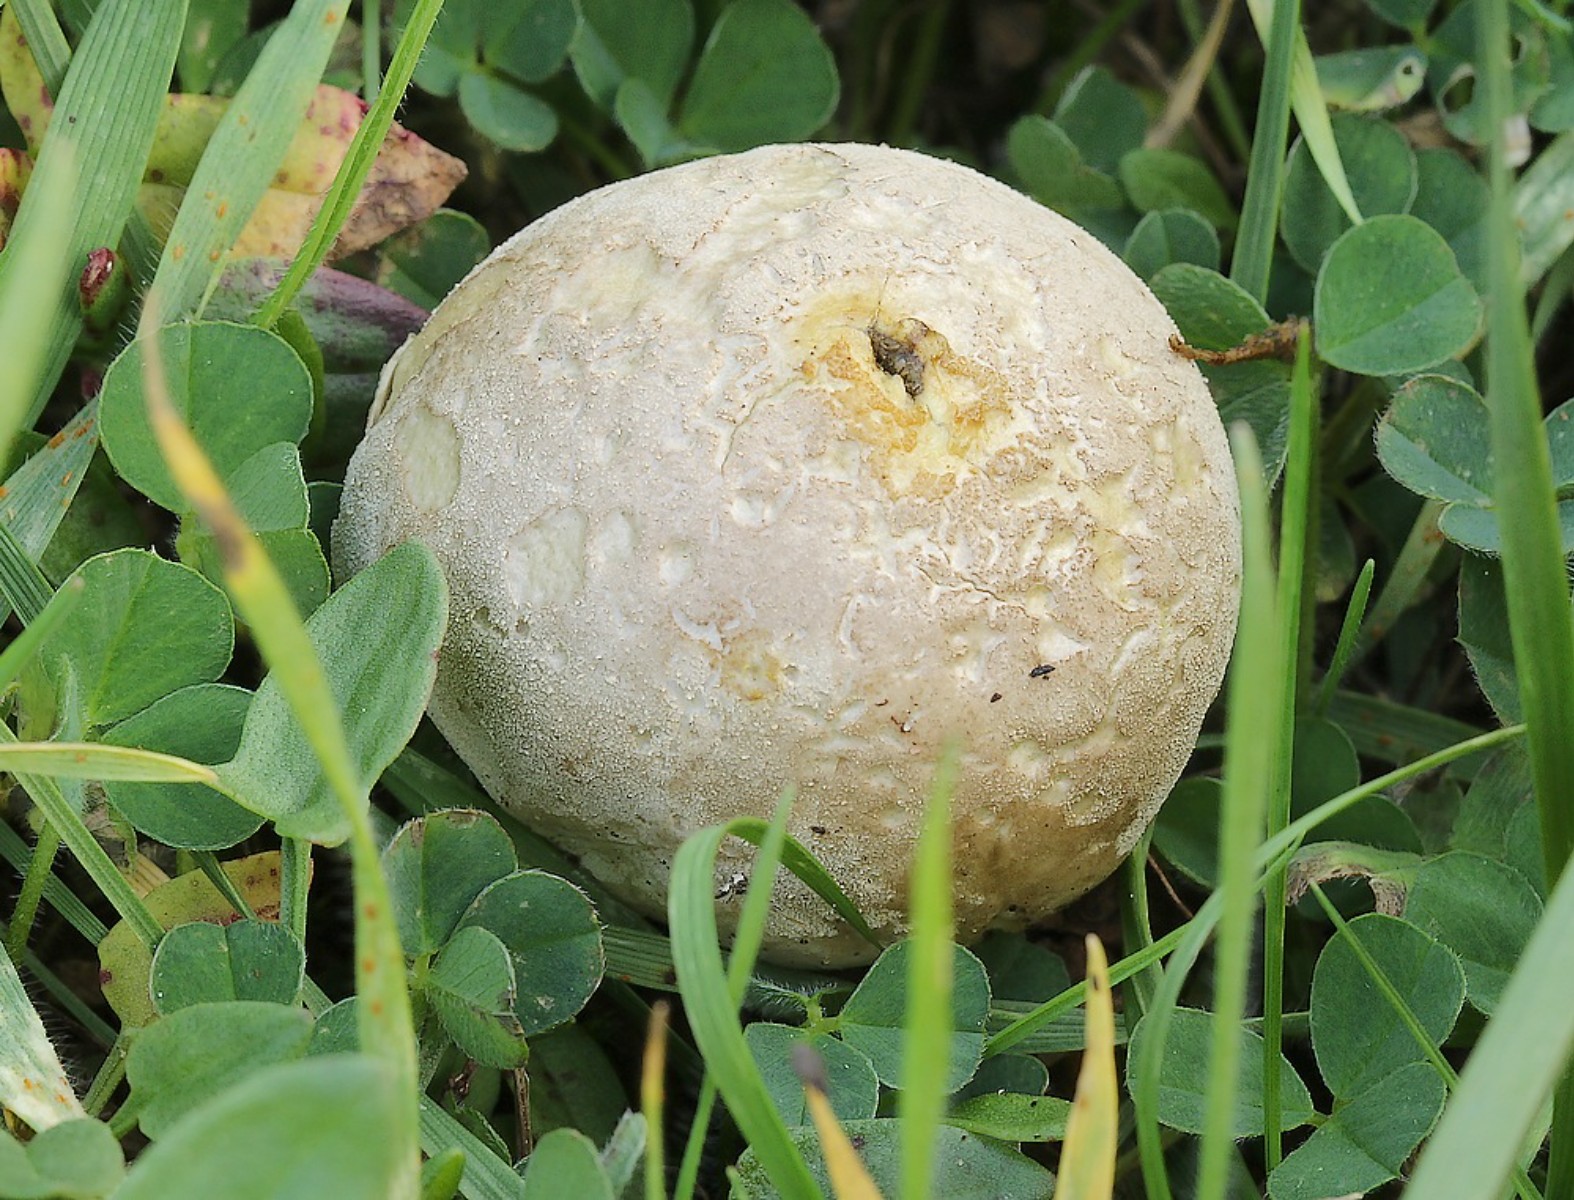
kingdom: Fungi
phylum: Basidiomycota
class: Agaricomycetes
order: Agaricales
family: Agaricaceae
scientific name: Agaricaceae
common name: champignonfamilien
